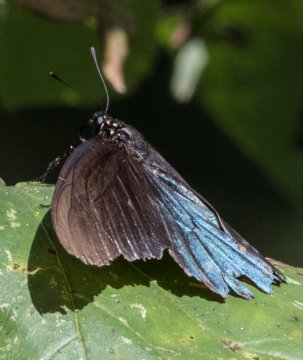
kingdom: Animalia
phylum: Arthropoda
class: Insecta
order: Lepidoptera
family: Papilionidae
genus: Battus
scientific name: Battus philenor
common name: Pipevine Swallowtail
